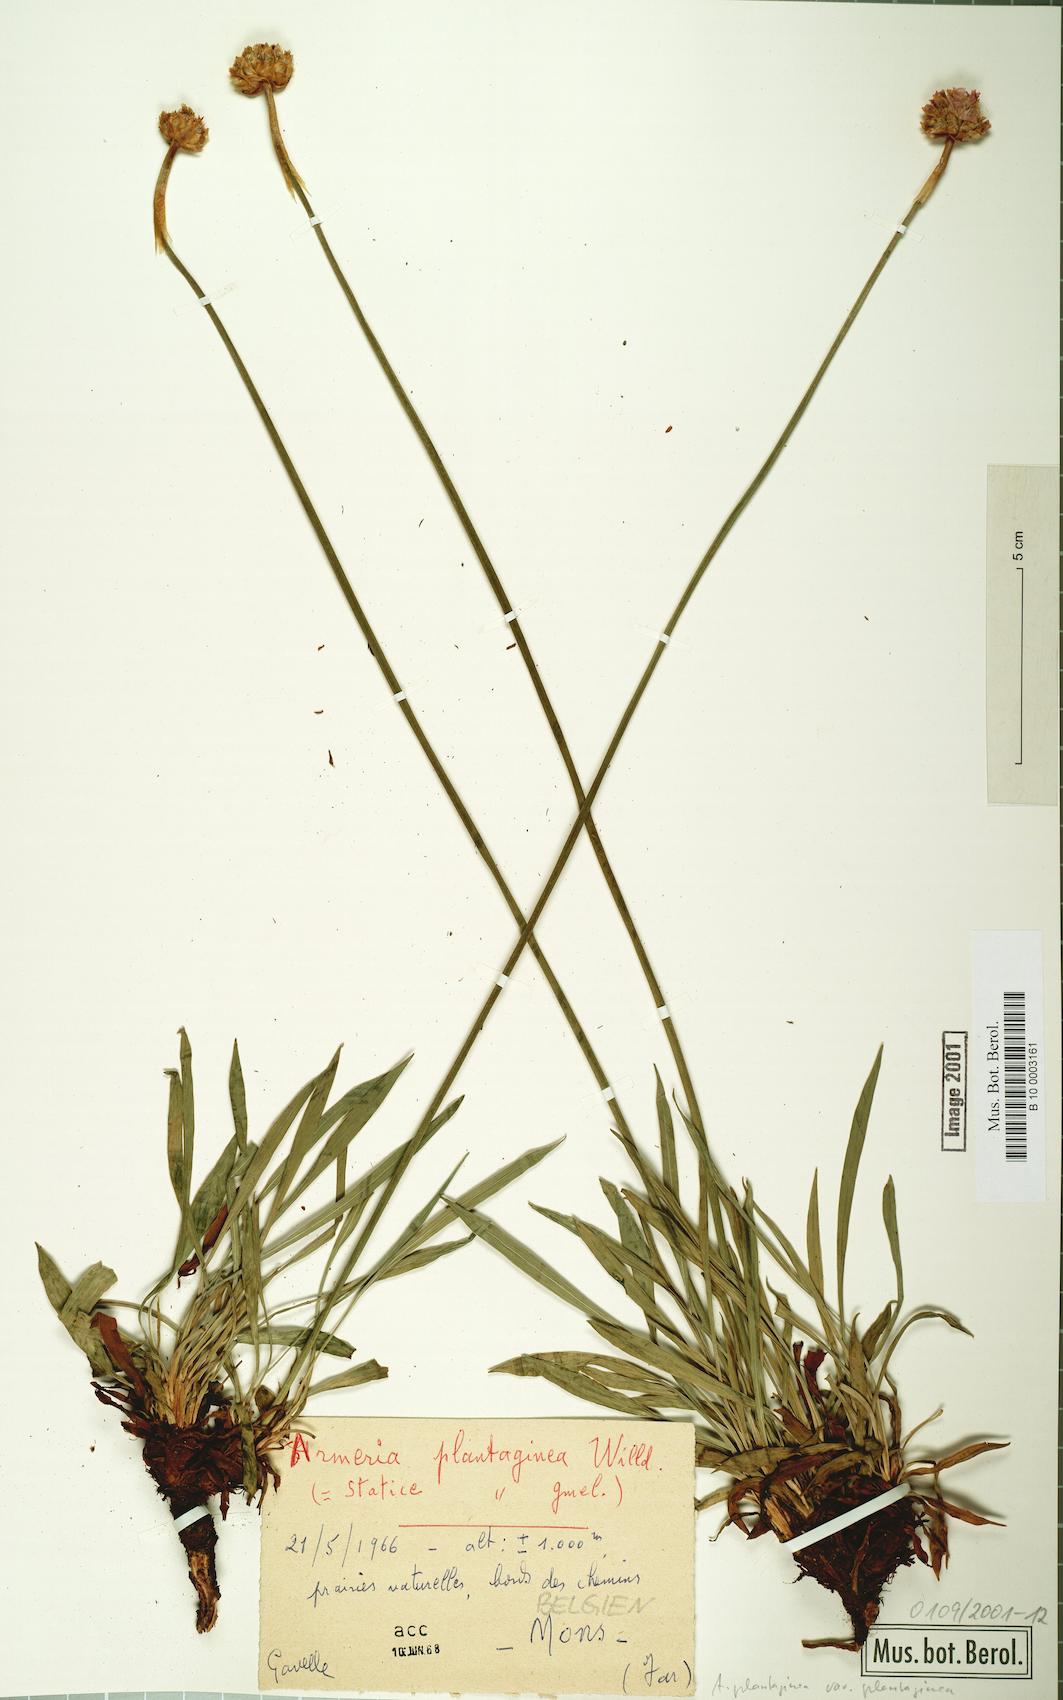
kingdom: Plantae
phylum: Tracheophyta
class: Magnoliopsida
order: Caryophyllales
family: Plumbaginaceae
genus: Armeria
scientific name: Armeria alliacea
